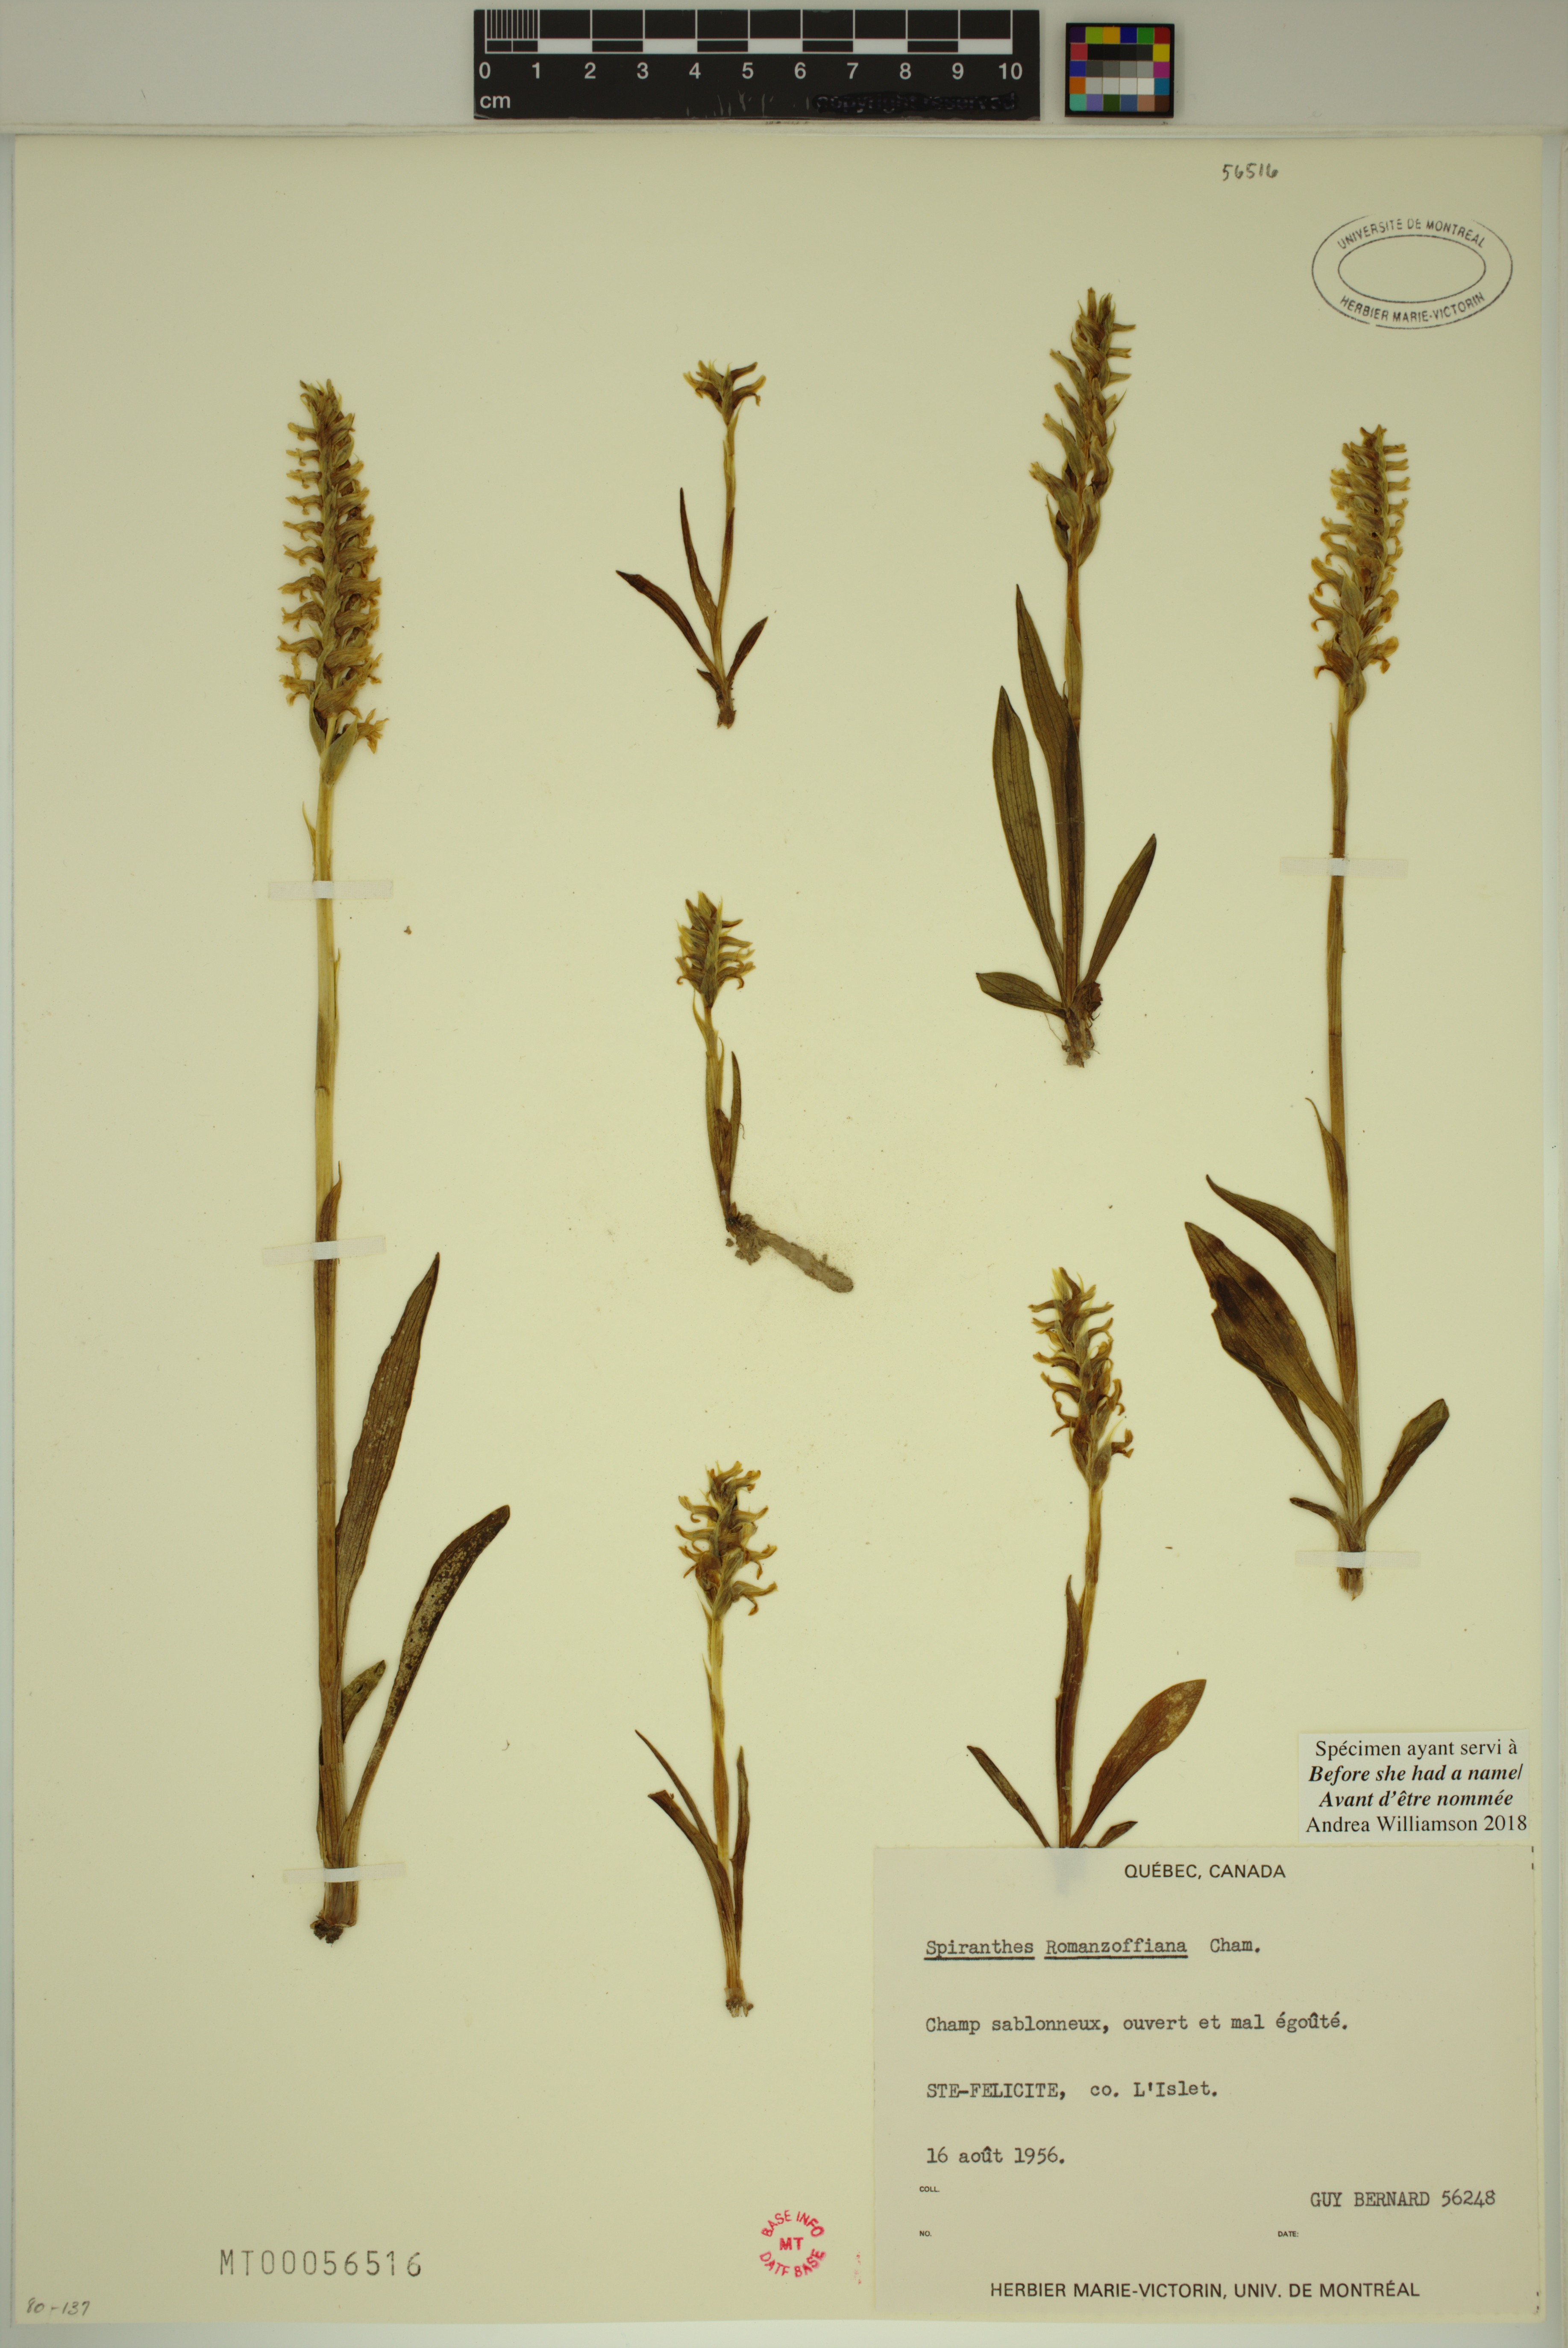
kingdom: Plantae
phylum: Tracheophyta
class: Liliopsida
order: Asparagales
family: Orchidaceae
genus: Spiranthes
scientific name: Spiranthes romanzoffiana
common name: Irish lady's-tresses
